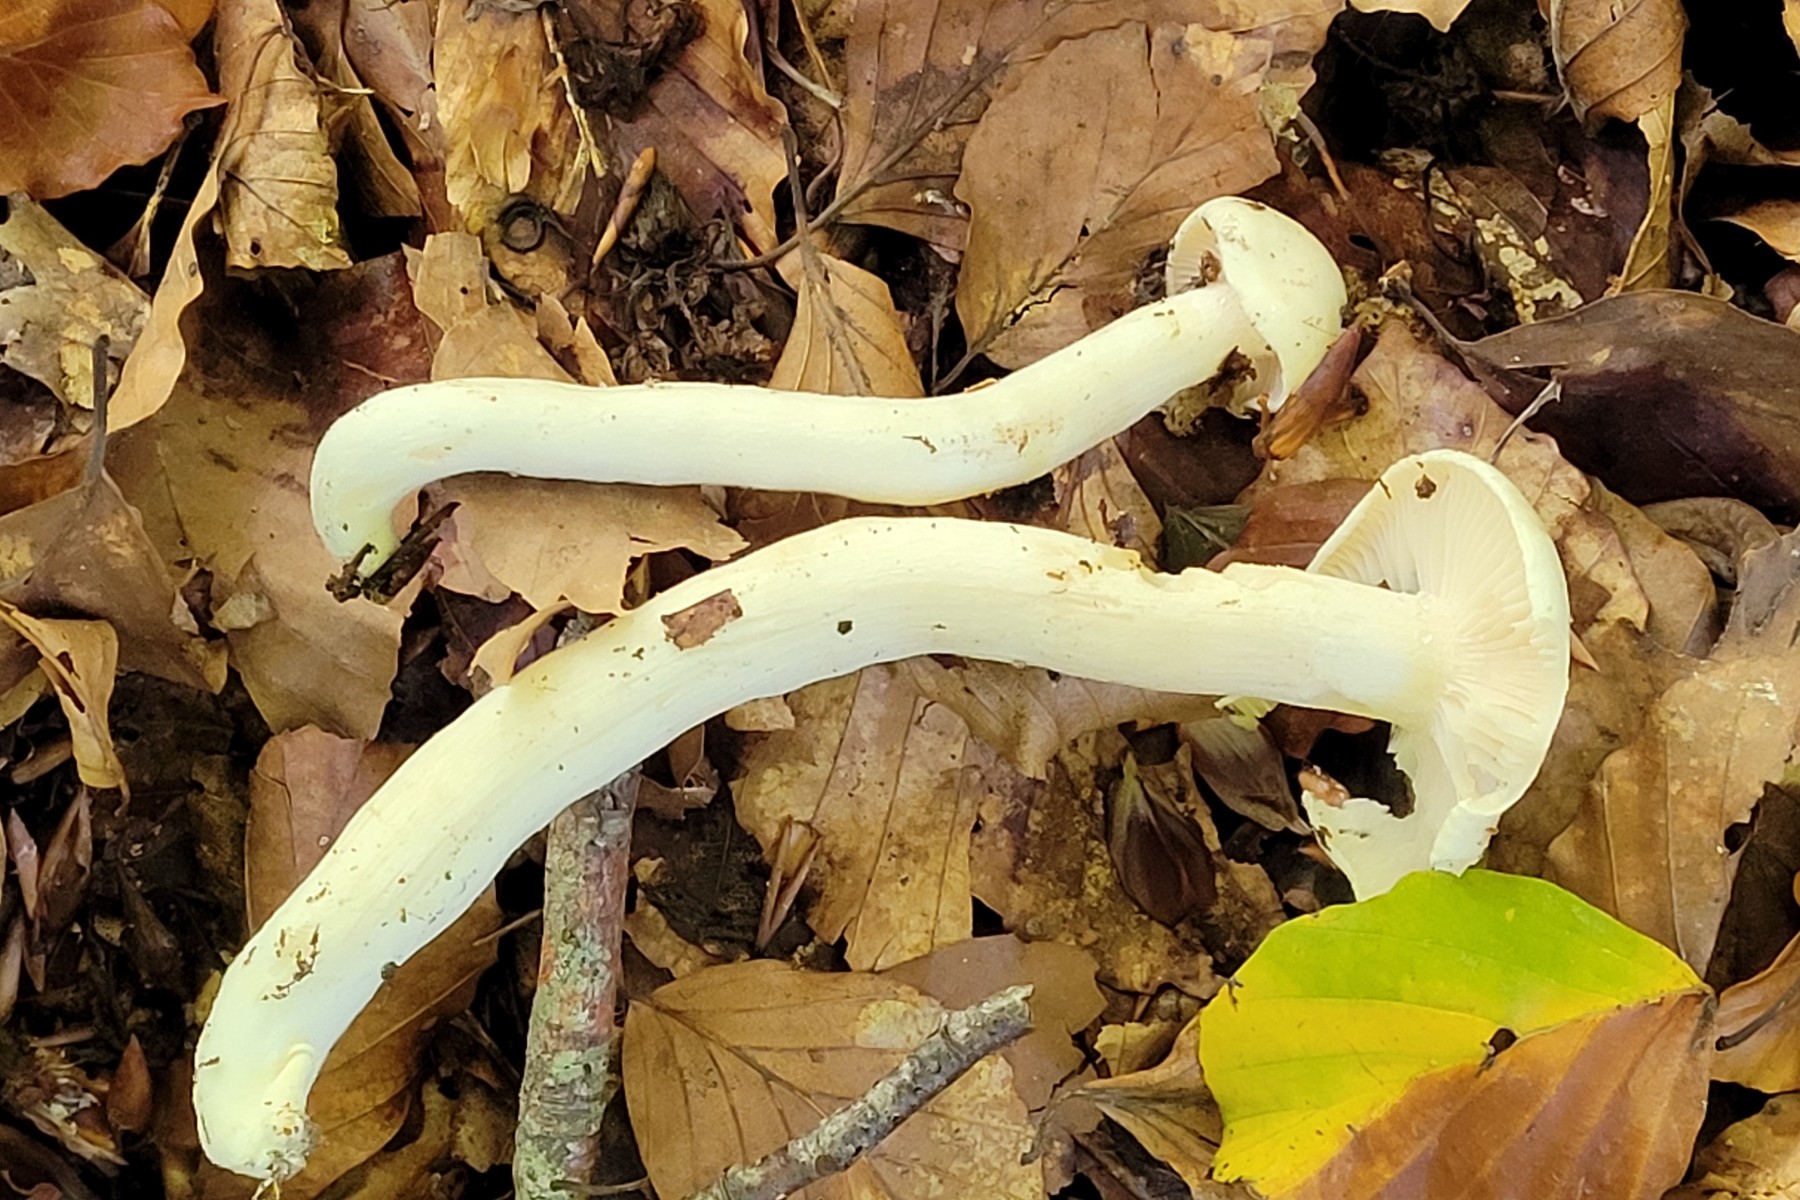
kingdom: Fungi
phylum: Basidiomycota
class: Agaricomycetes
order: Agaricales
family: Hygrophoraceae
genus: Hygrophorus
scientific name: Hygrophorus eburneus
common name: elfenbens-sneglehat
